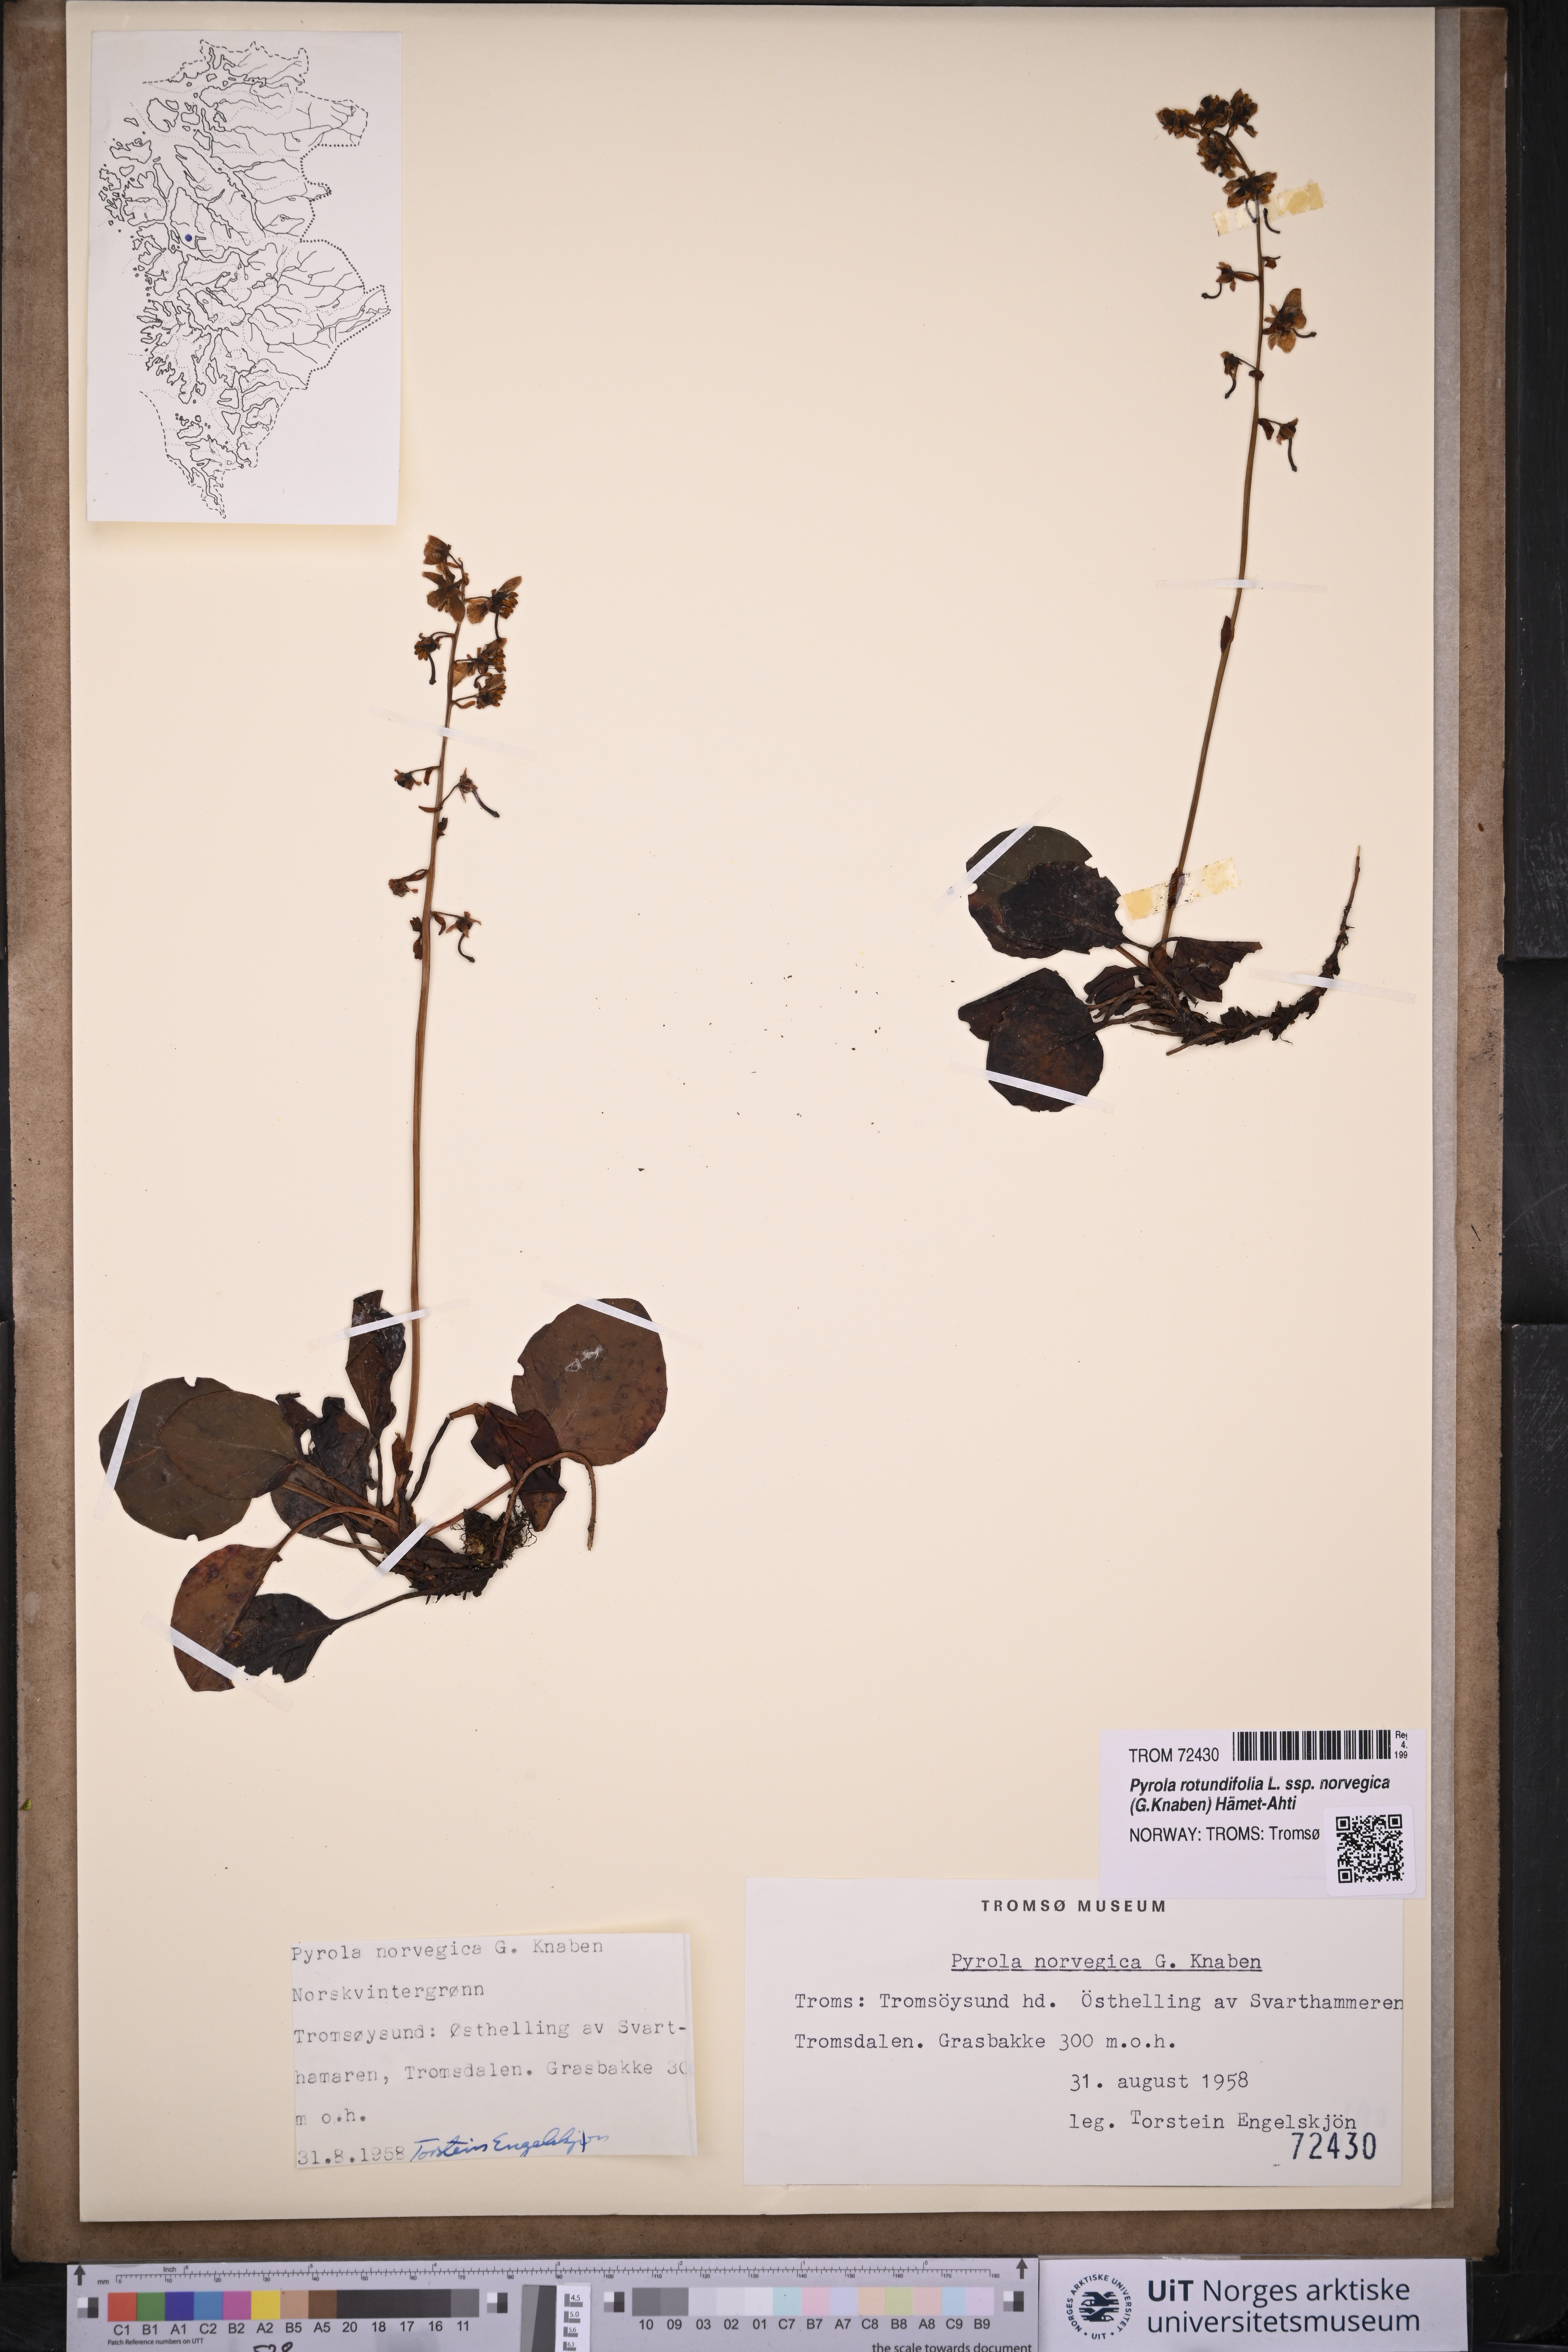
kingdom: Plantae
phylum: Tracheophyta
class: Magnoliopsida
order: Ericales
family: Ericaceae
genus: Pyrola
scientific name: Pyrola rotundifolia
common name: Round-leaved wintergreen
